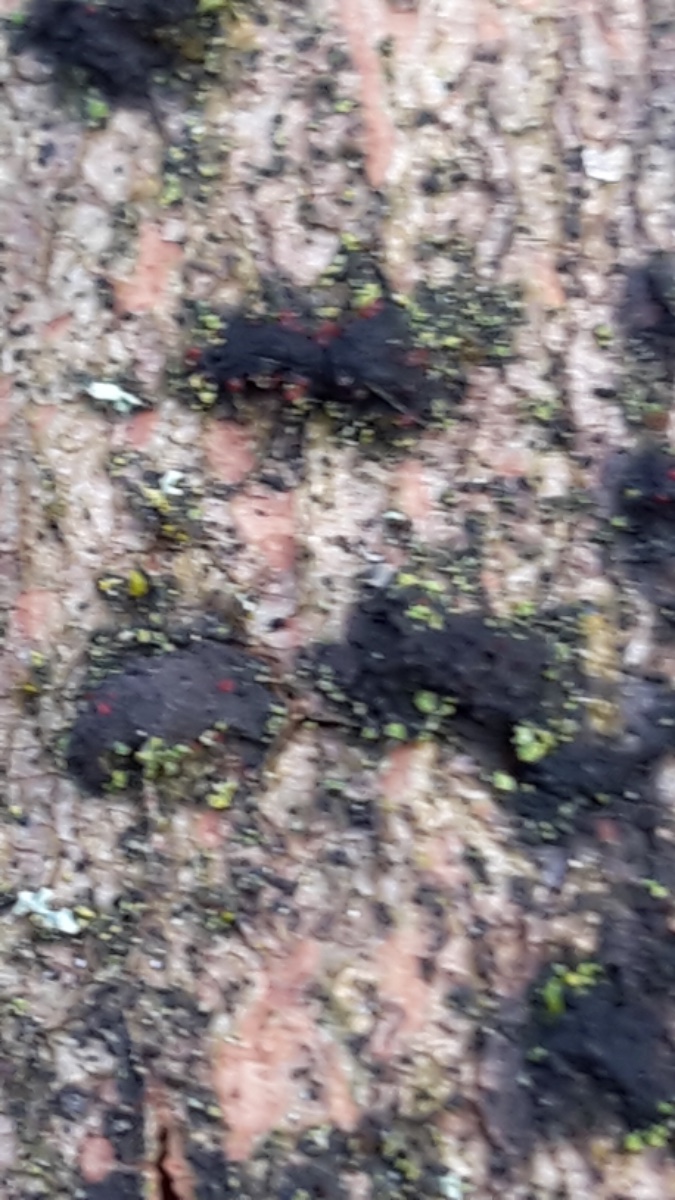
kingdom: Fungi
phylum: Ascomycota
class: Sordariomycetes
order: Hypocreales
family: Nectriaceae
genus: Dialonectria
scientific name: Dialonectria diatrypellicola
